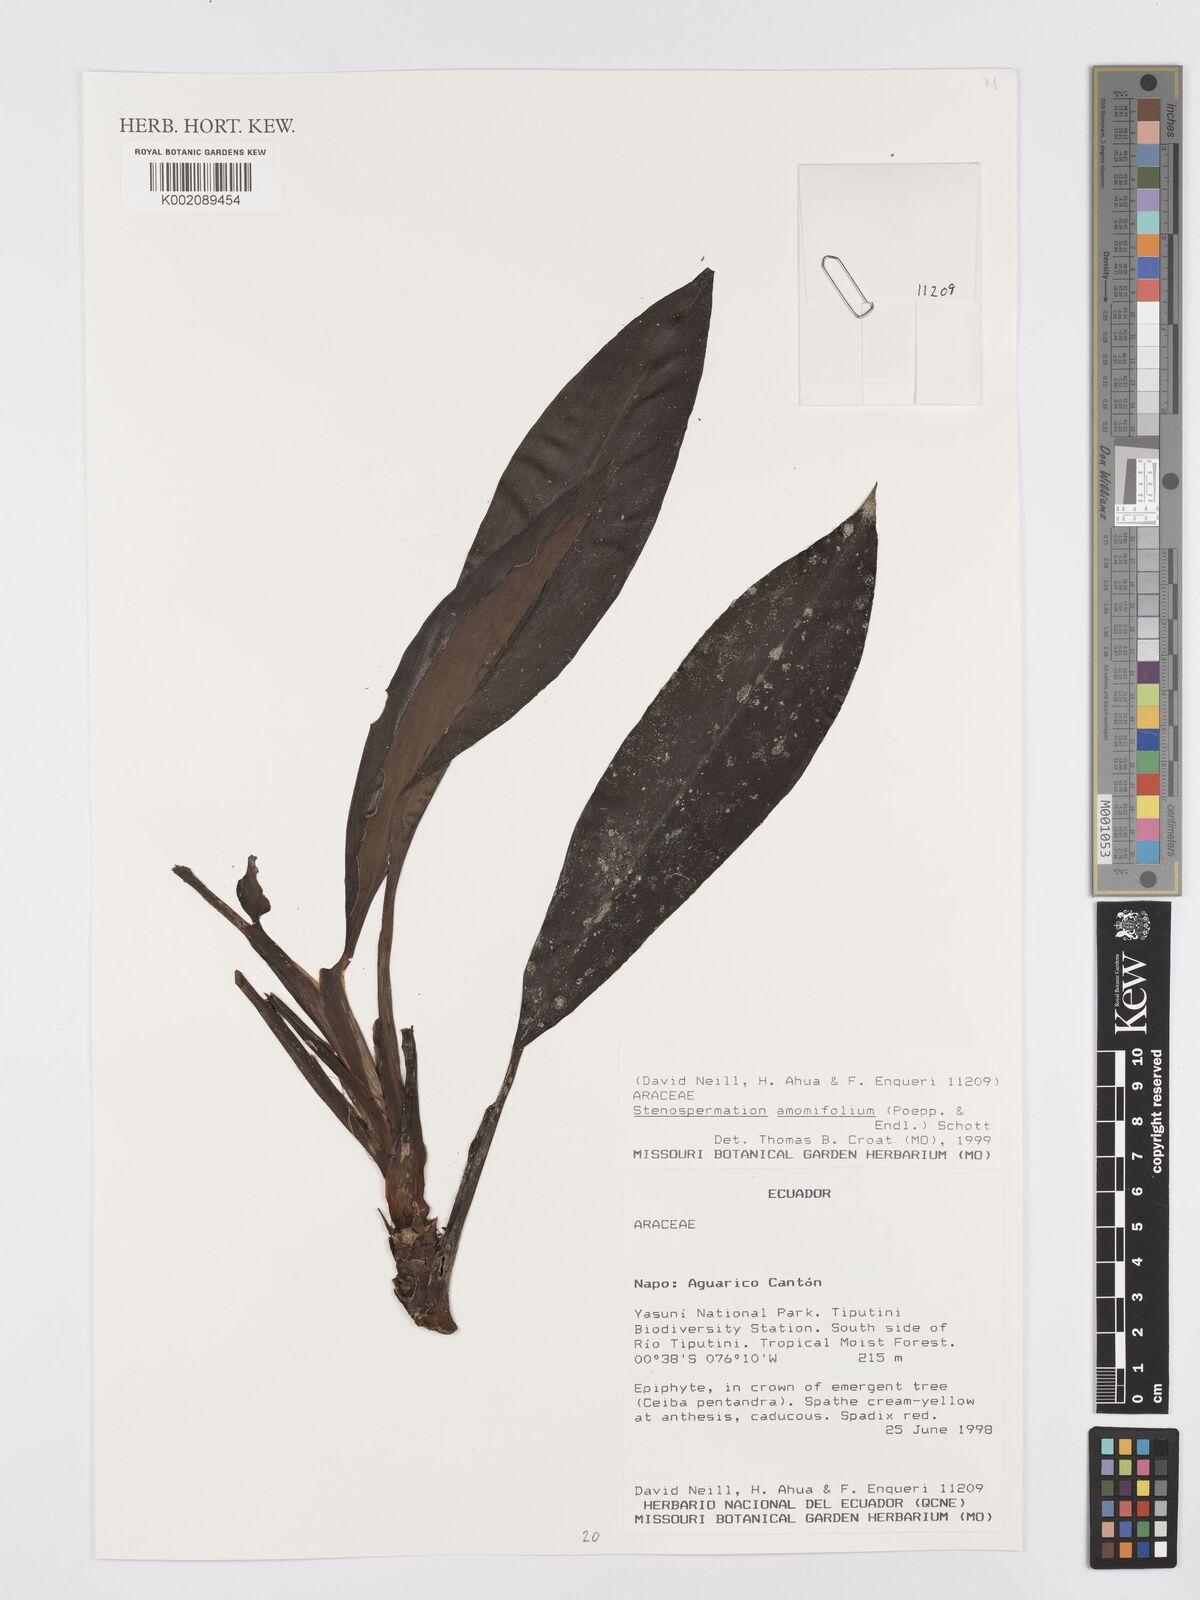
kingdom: Plantae
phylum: Tracheophyta
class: Liliopsida
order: Alismatales
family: Araceae
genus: Stenospermation
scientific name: Stenospermation amomifolium
